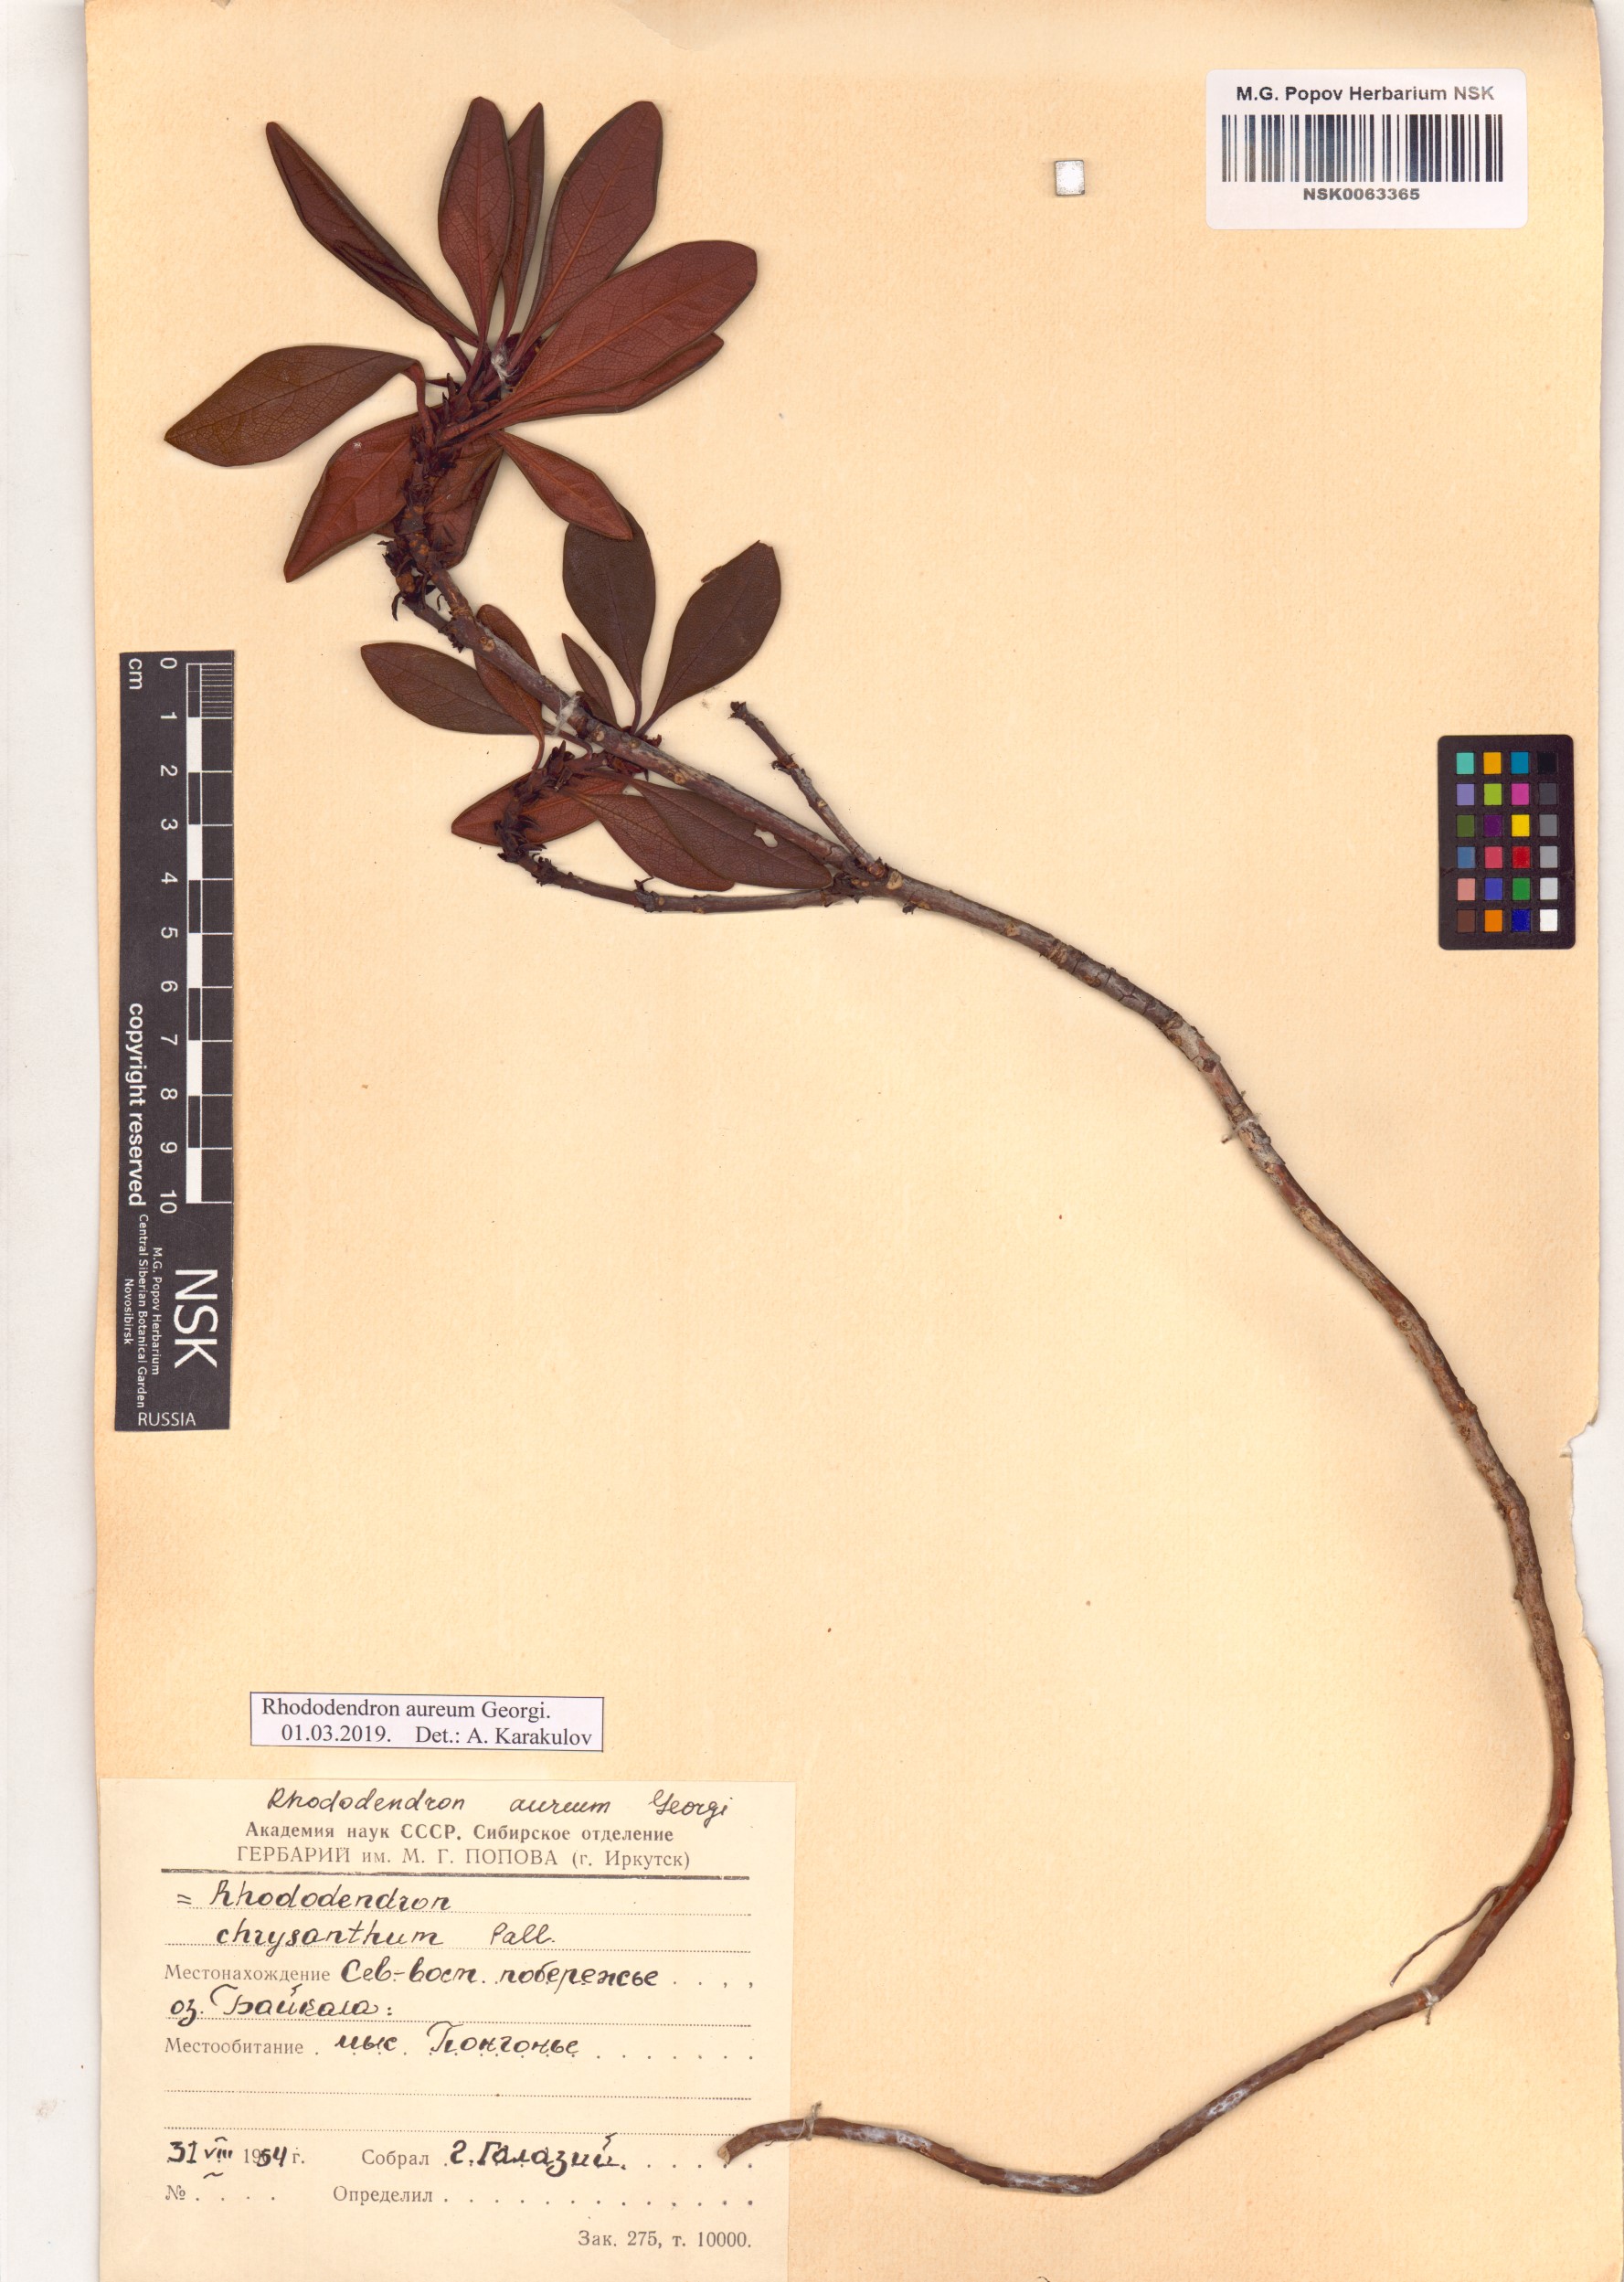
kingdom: Plantae
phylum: Tracheophyta
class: Magnoliopsida
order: Ericales
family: Ericaceae
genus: Rhododendron
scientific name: Rhododendron aureum
